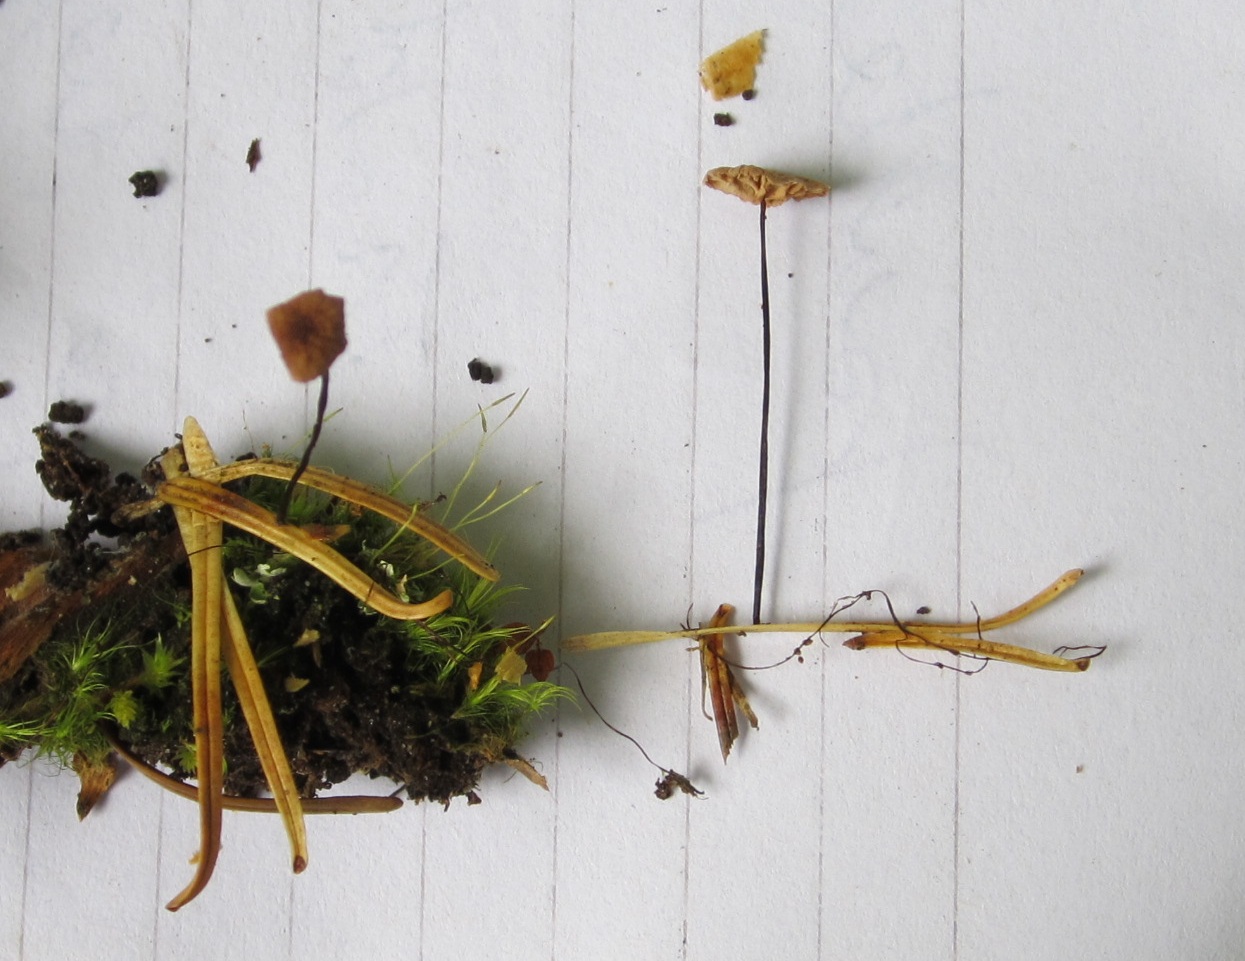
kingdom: Fungi
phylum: Basidiomycota
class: Agaricomycetes
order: Agaricales
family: Omphalotaceae
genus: Paragymnopus
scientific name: Paragymnopus perforans
